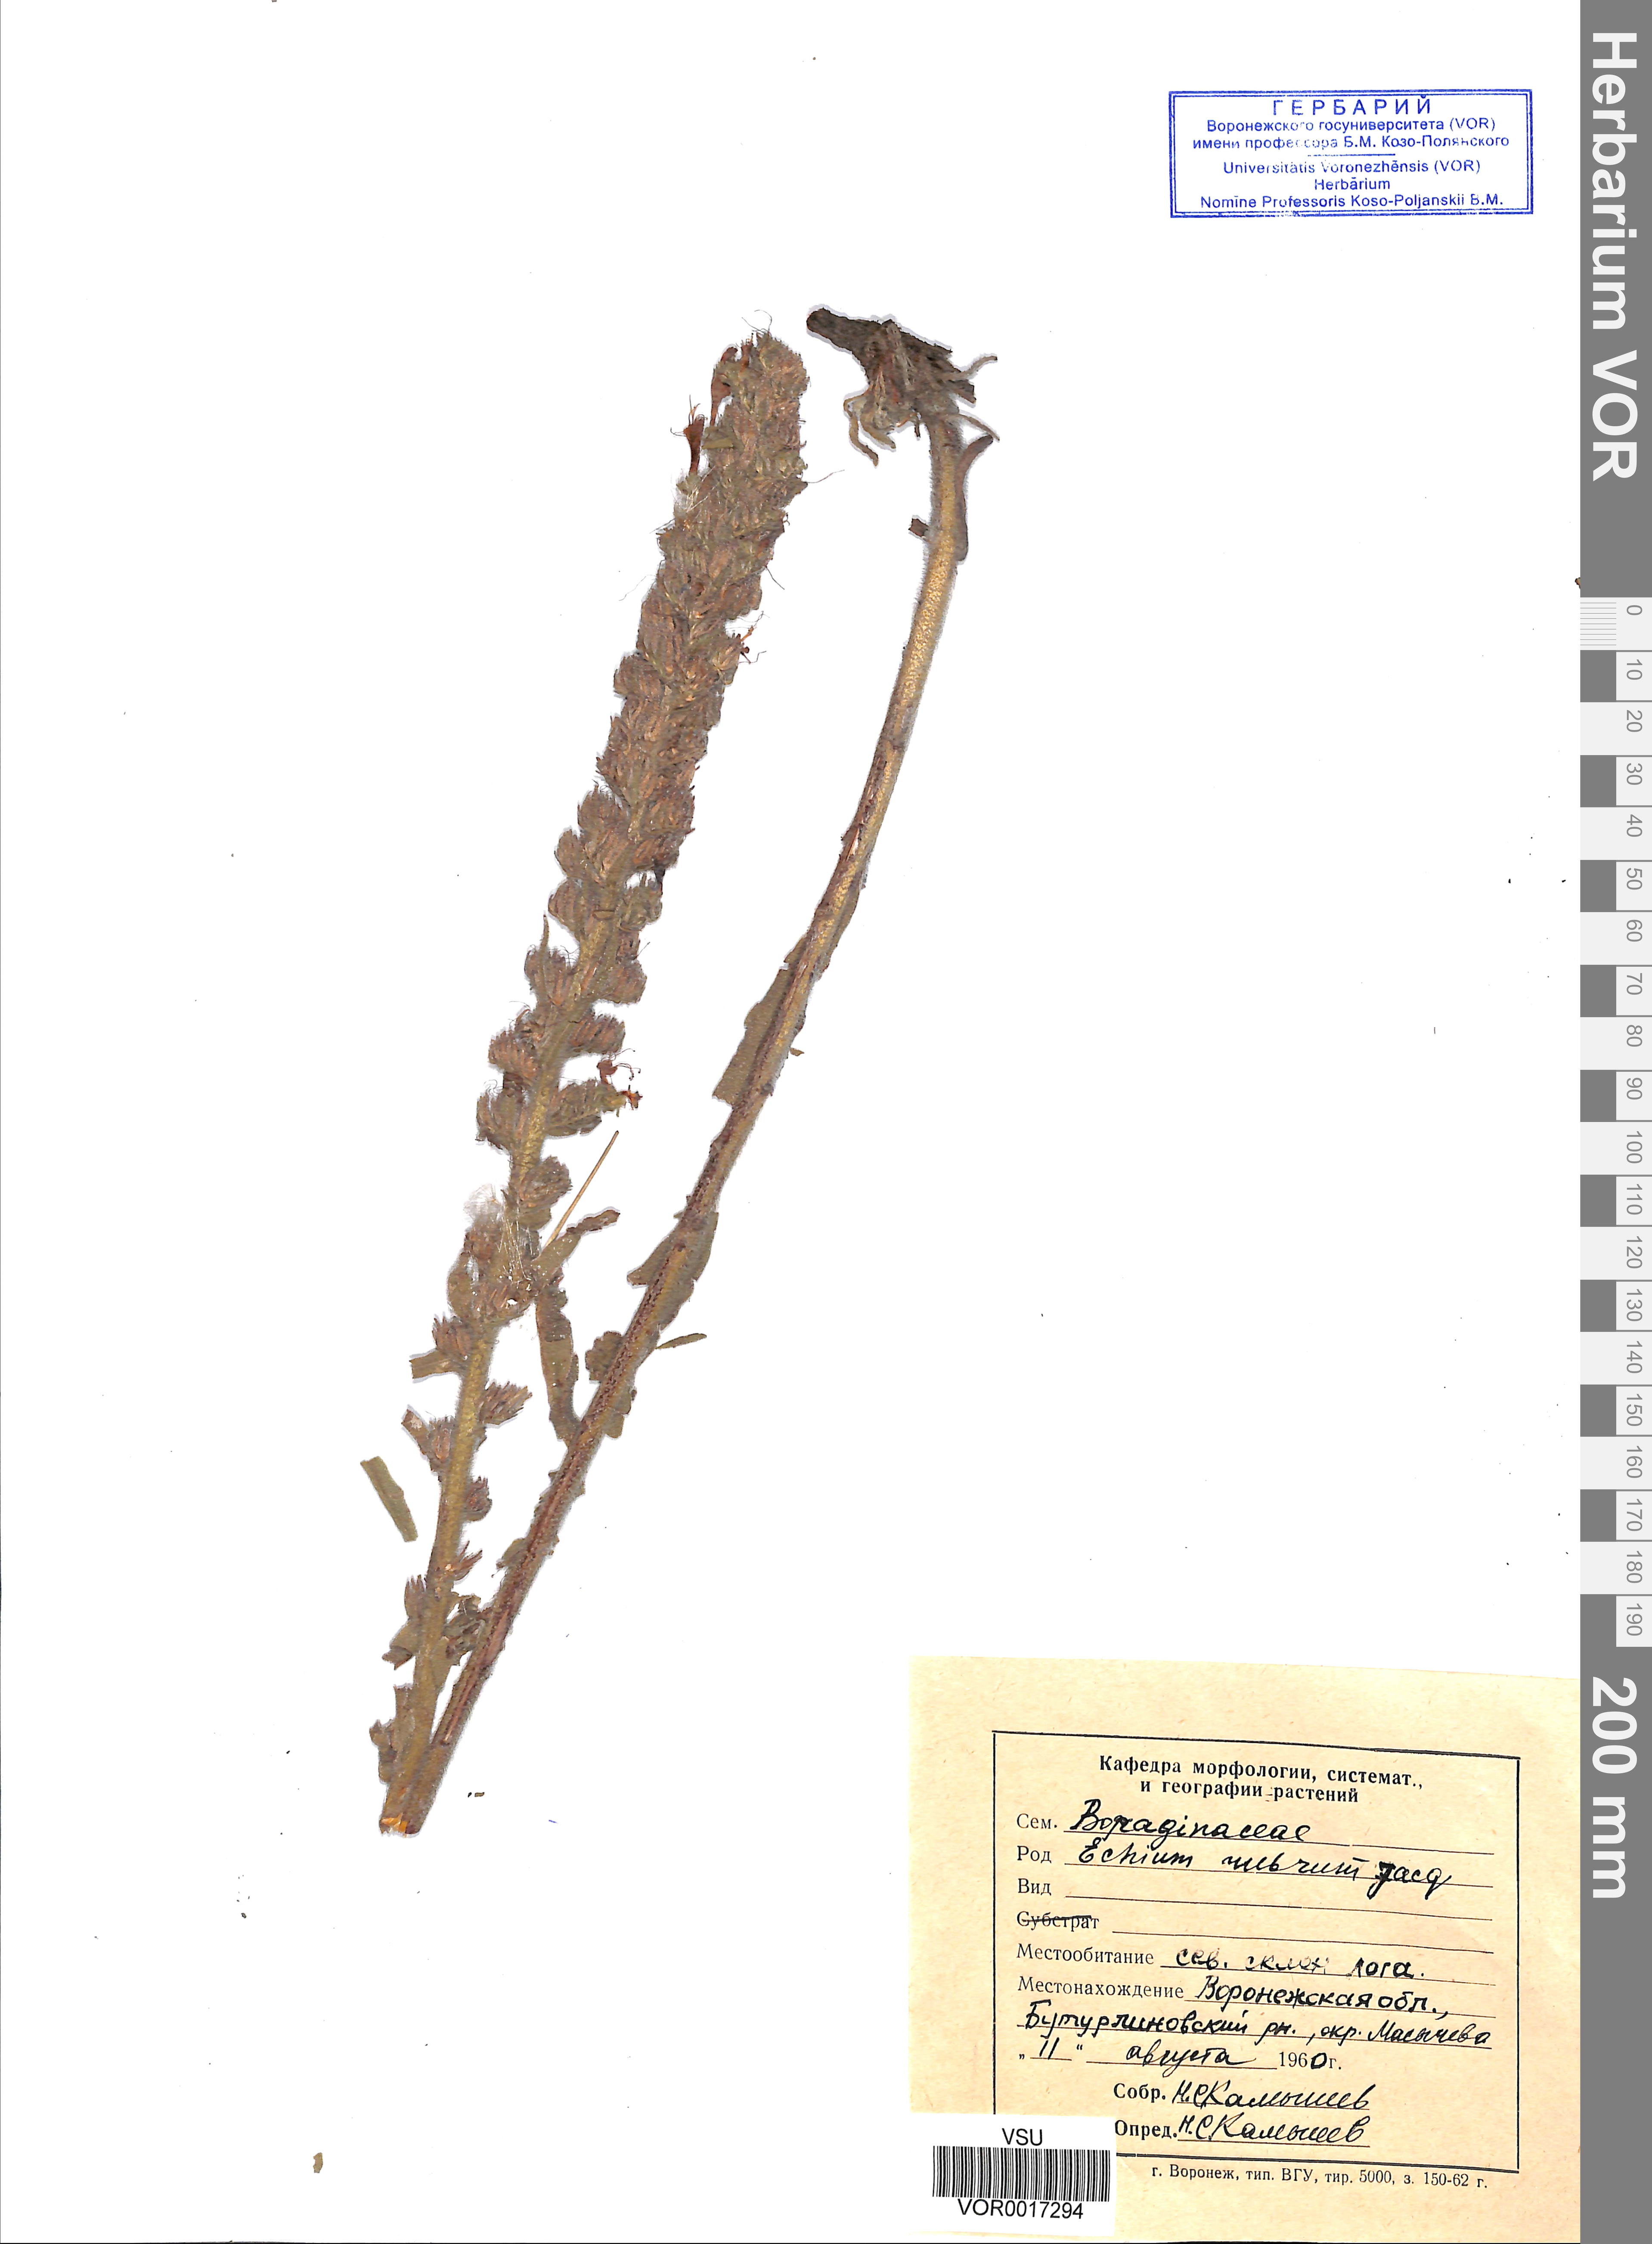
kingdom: Plantae
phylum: Tracheophyta
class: Magnoliopsida
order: Boraginales
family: Boraginaceae
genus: Pontechium
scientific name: Pontechium maculatum
